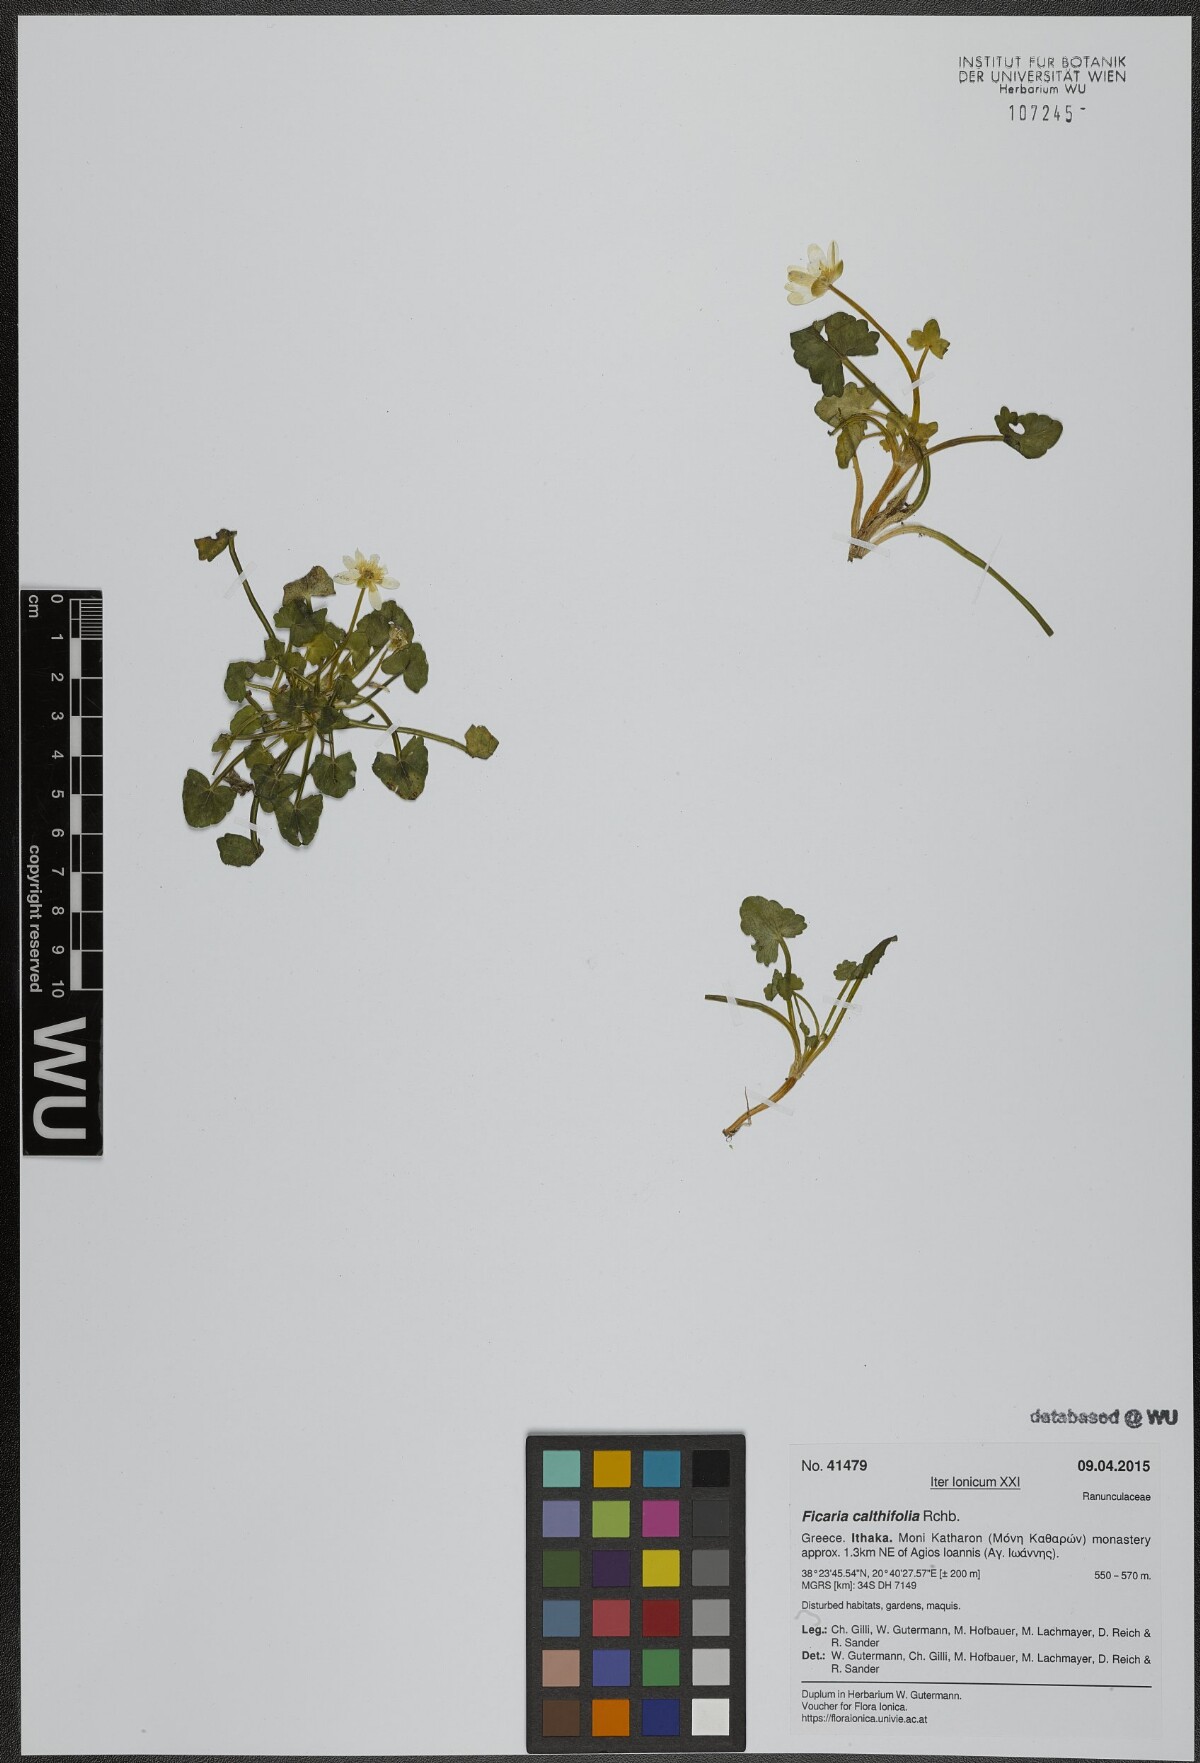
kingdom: Plantae
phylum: Tracheophyta
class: Magnoliopsida
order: Ranunculales
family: Ranunculaceae
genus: Ficaria
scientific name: Ficaria calthifolia
